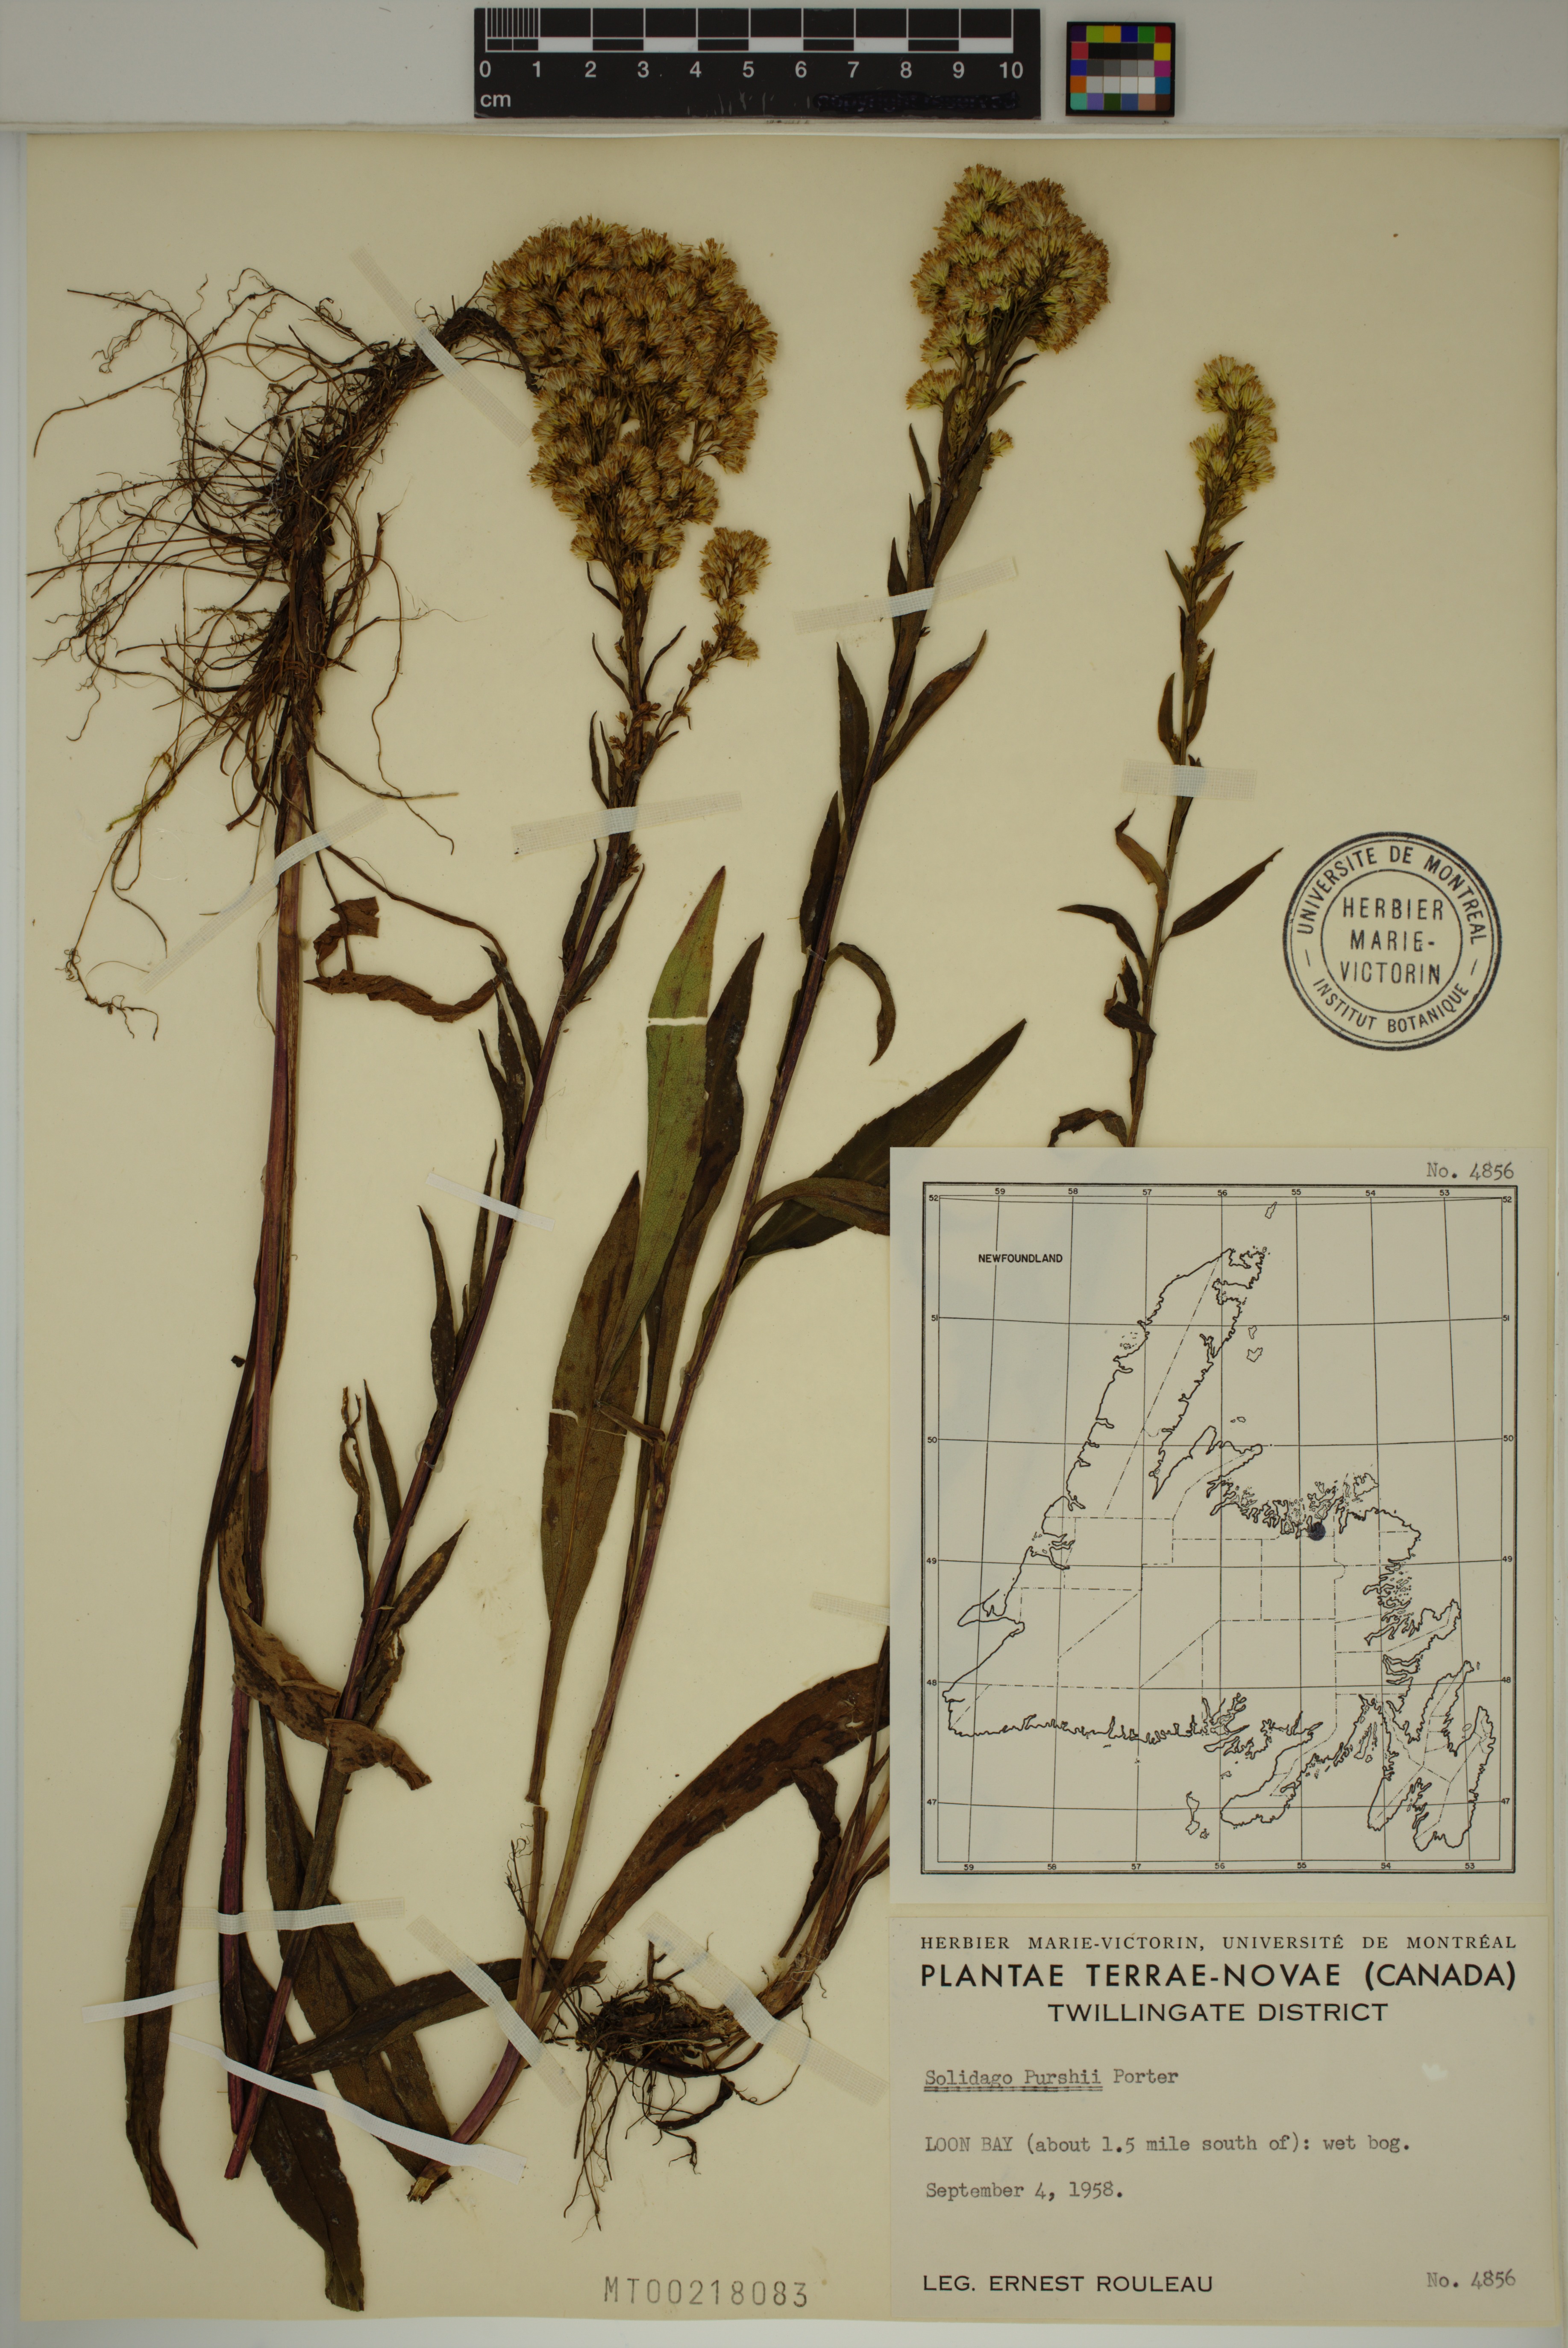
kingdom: Plantae
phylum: Tracheophyta
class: Magnoliopsida
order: Asterales
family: Asteraceae
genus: Solidago
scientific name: Solidago uliginosa
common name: Bog goldenrod
